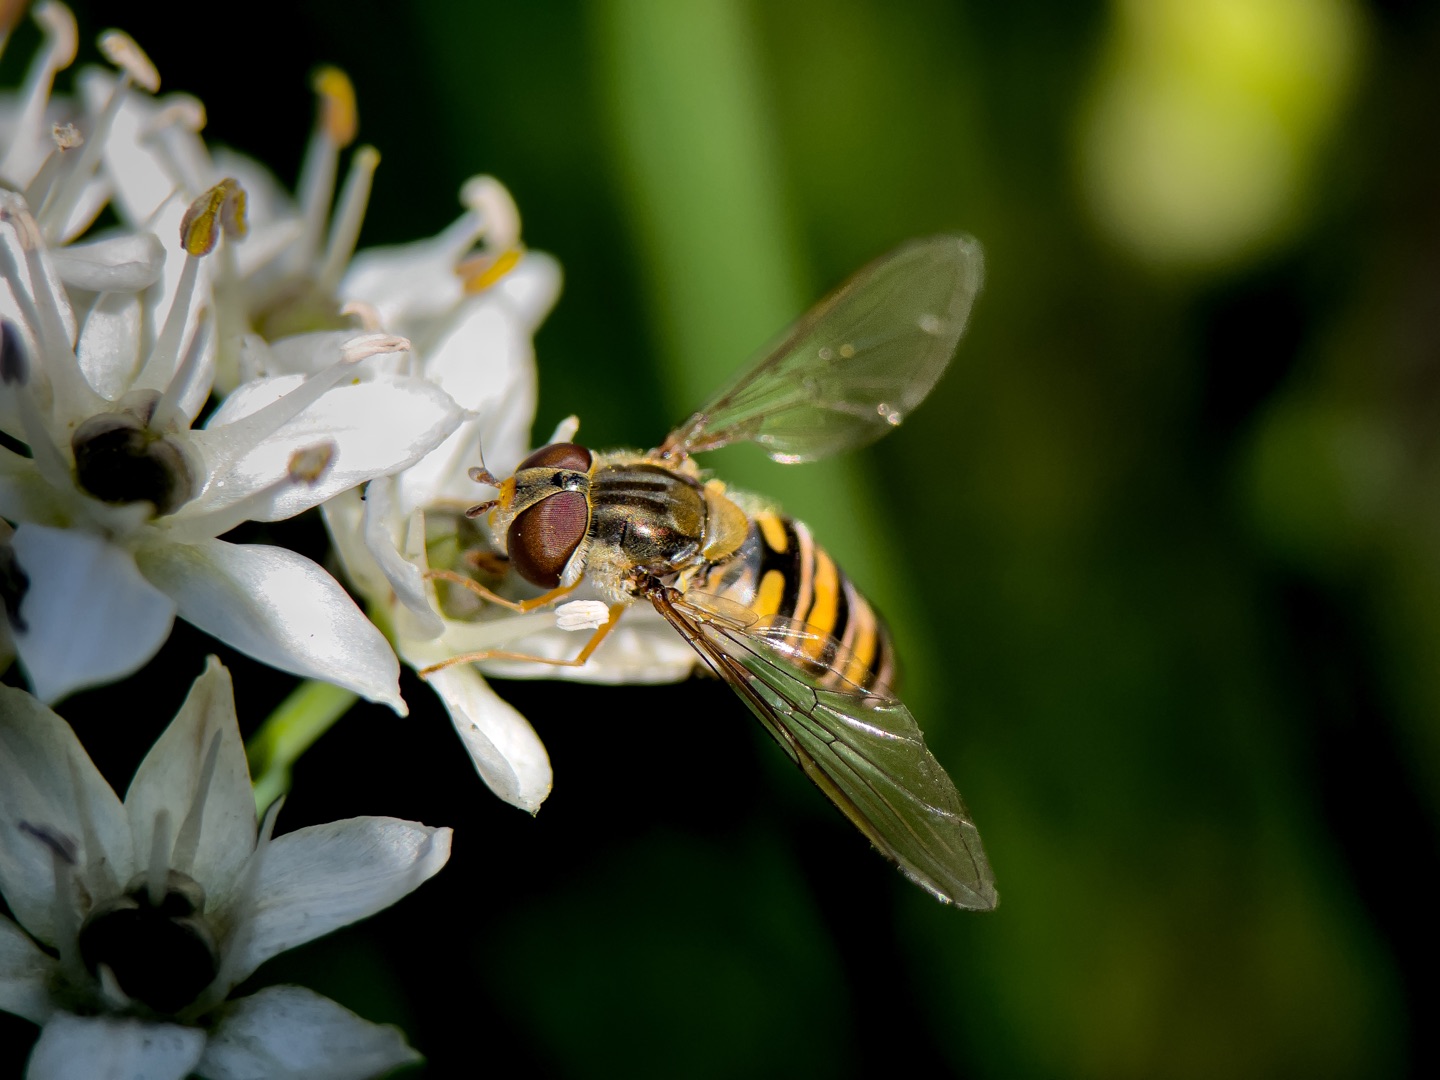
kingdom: Animalia
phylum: Arthropoda
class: Insecta
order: Diptera
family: Syrphidae
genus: Episyrphus
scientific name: Episyrphus balteatus
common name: Dobbeltbåndet svirreflue
